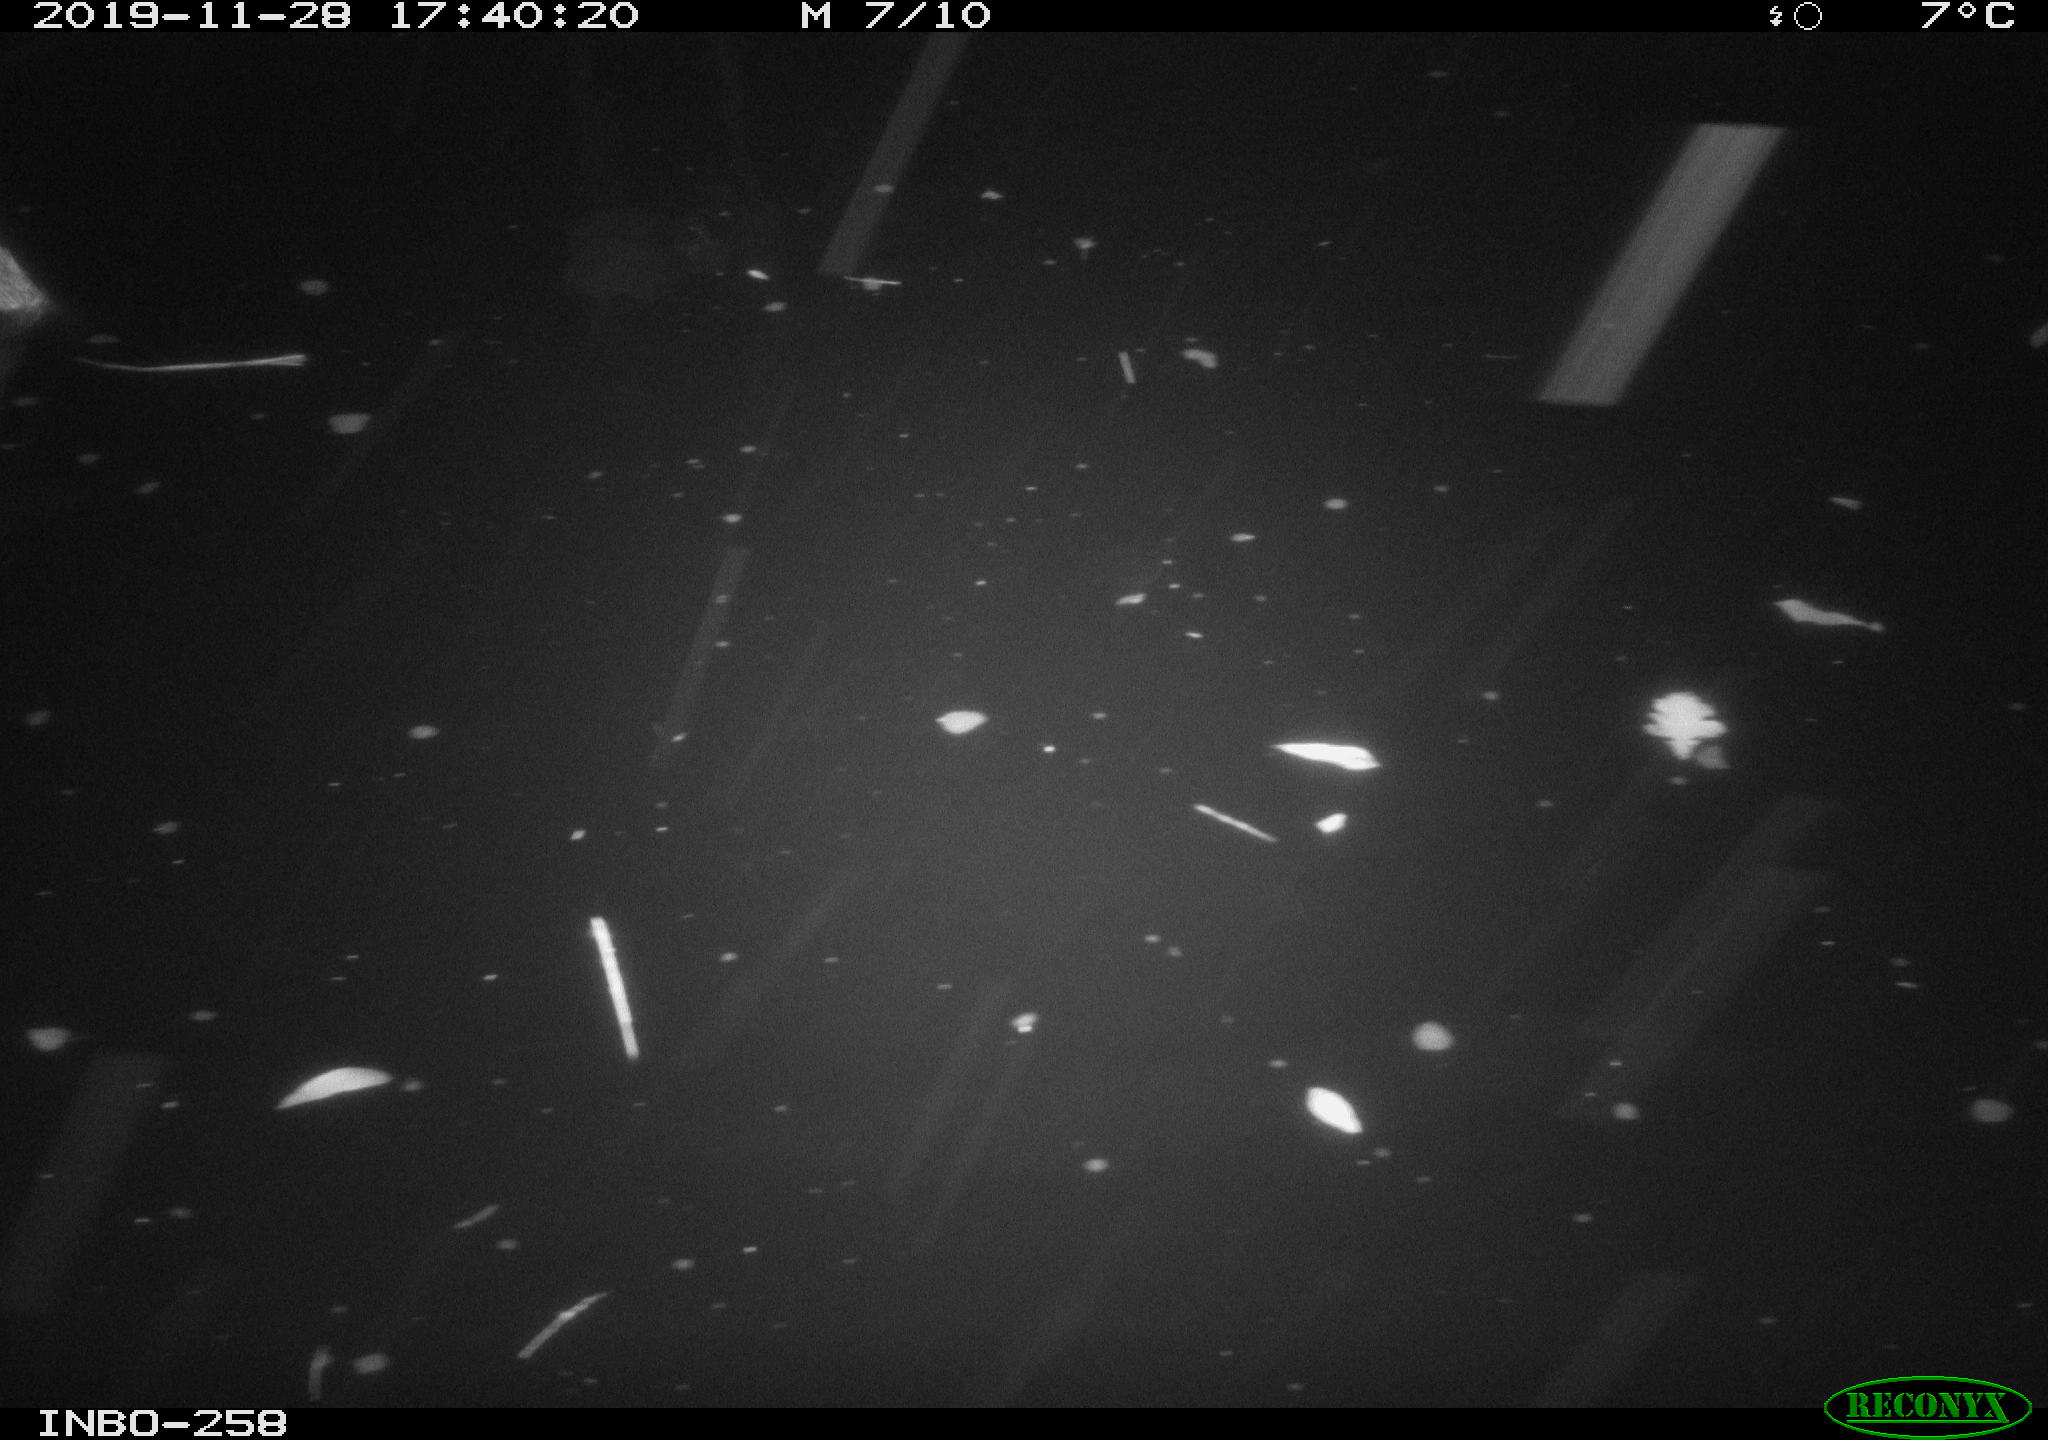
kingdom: Animalia
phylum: Chordata
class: Aves
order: Anseriformes
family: Anatidae
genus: Anas
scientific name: Anas platyrhynchos
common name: Mallard
